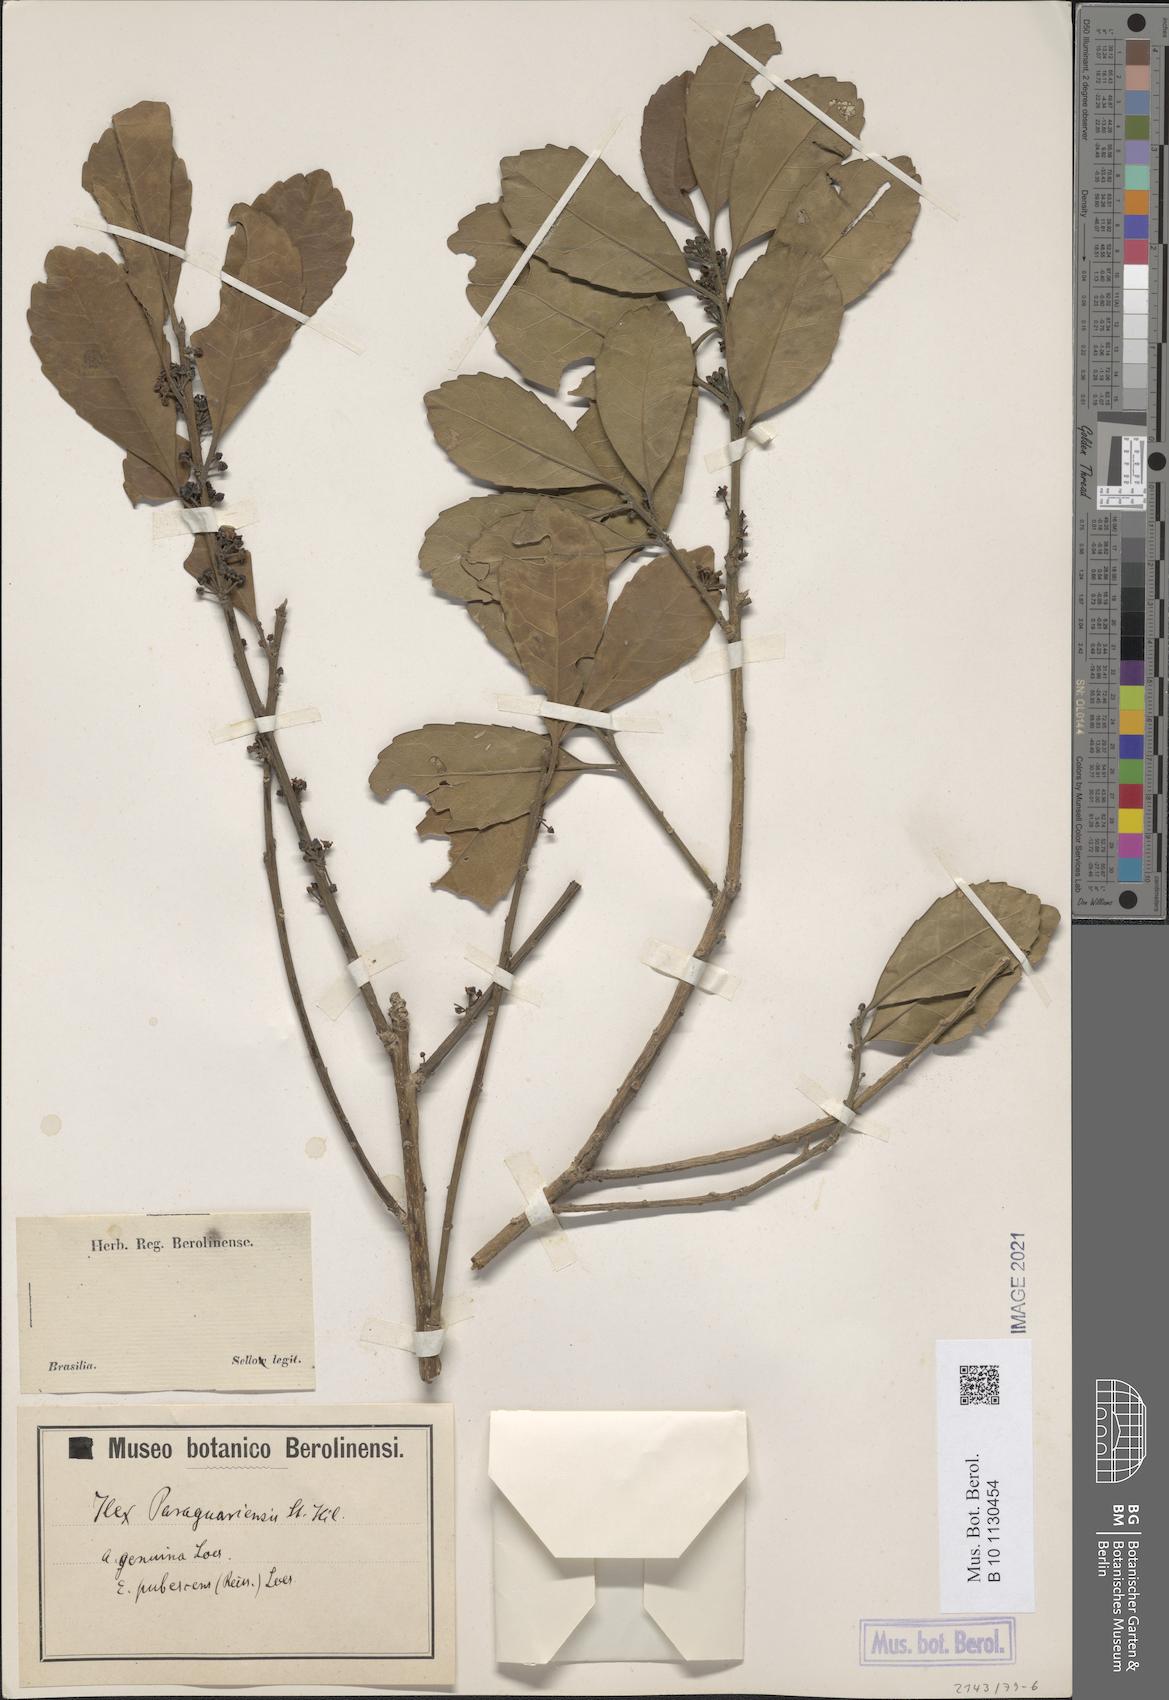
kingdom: Plantae
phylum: Tracheophyta
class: Magnoliopsida
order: Aquifoliales
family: Aquifoliaceae
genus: Ilex
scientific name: Ilex paraguariensis
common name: Paraguay tea
